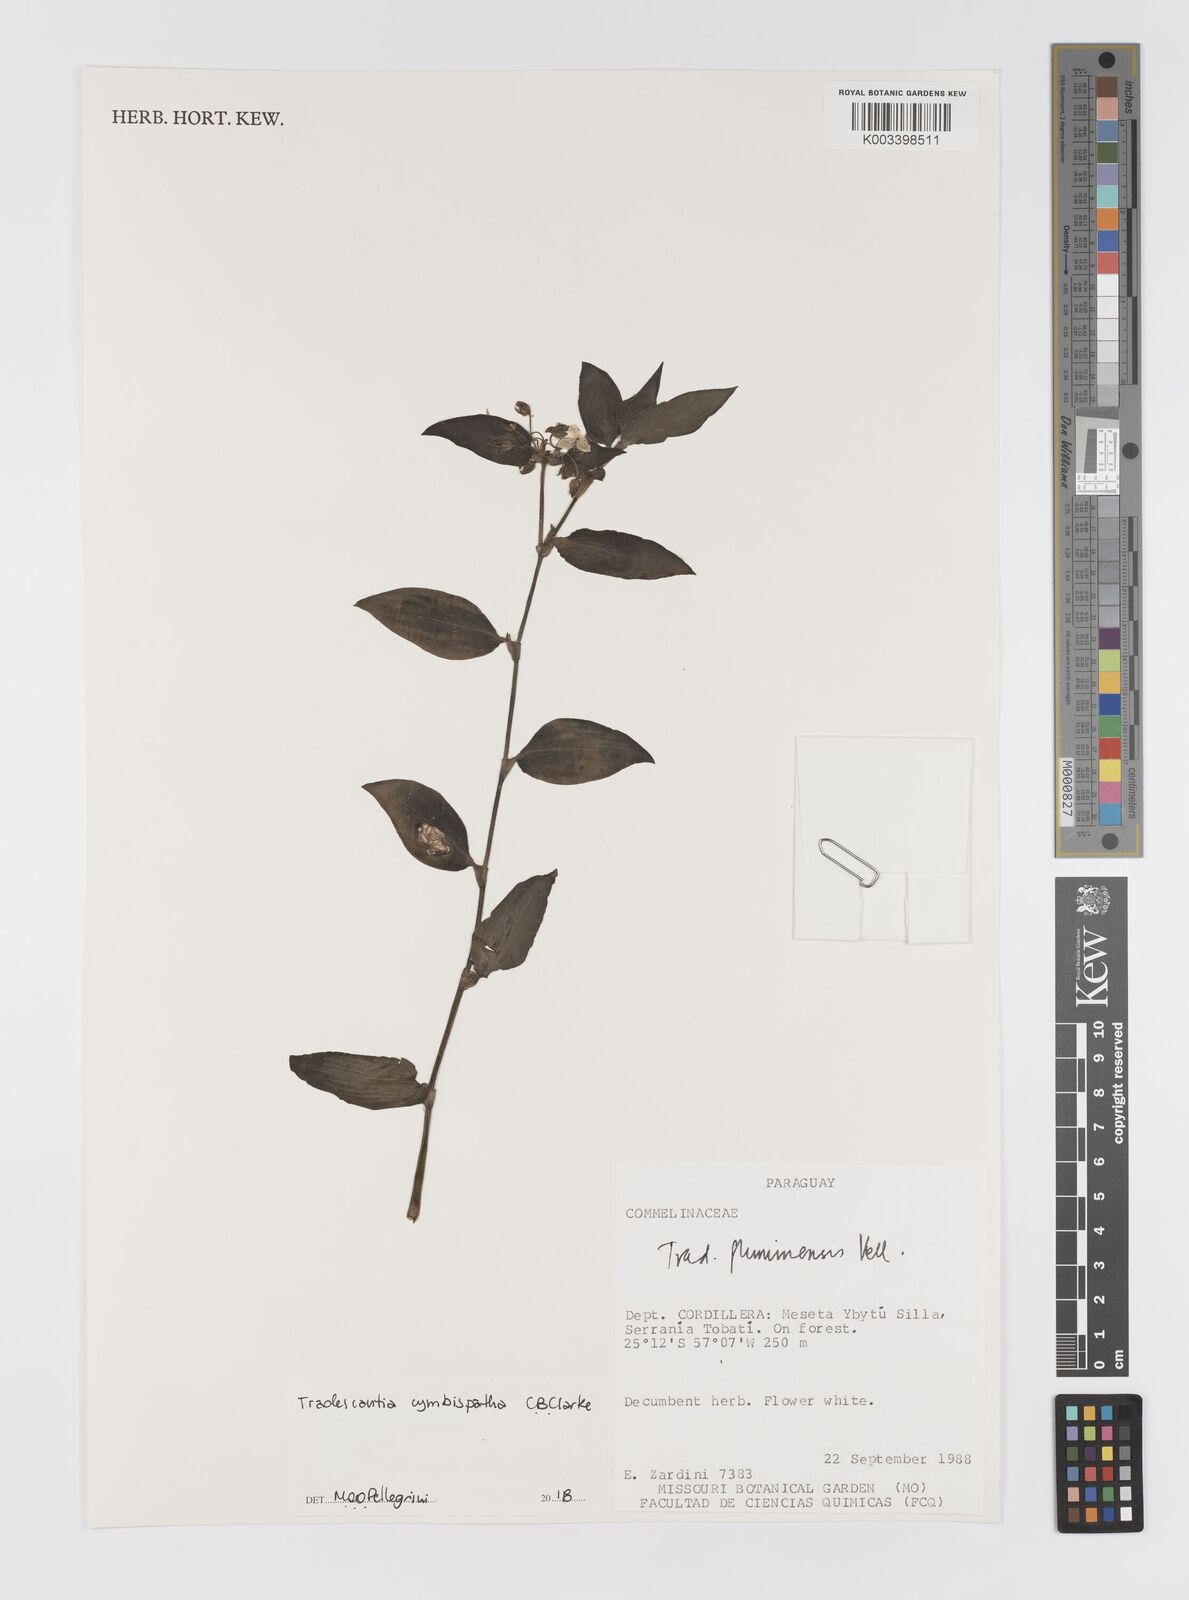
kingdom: Plantae
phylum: Tracheophyta
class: Liliopsida
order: Commelinales
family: Commelinaceae
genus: Tradescantia
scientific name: Tradescantia cymbispatha
